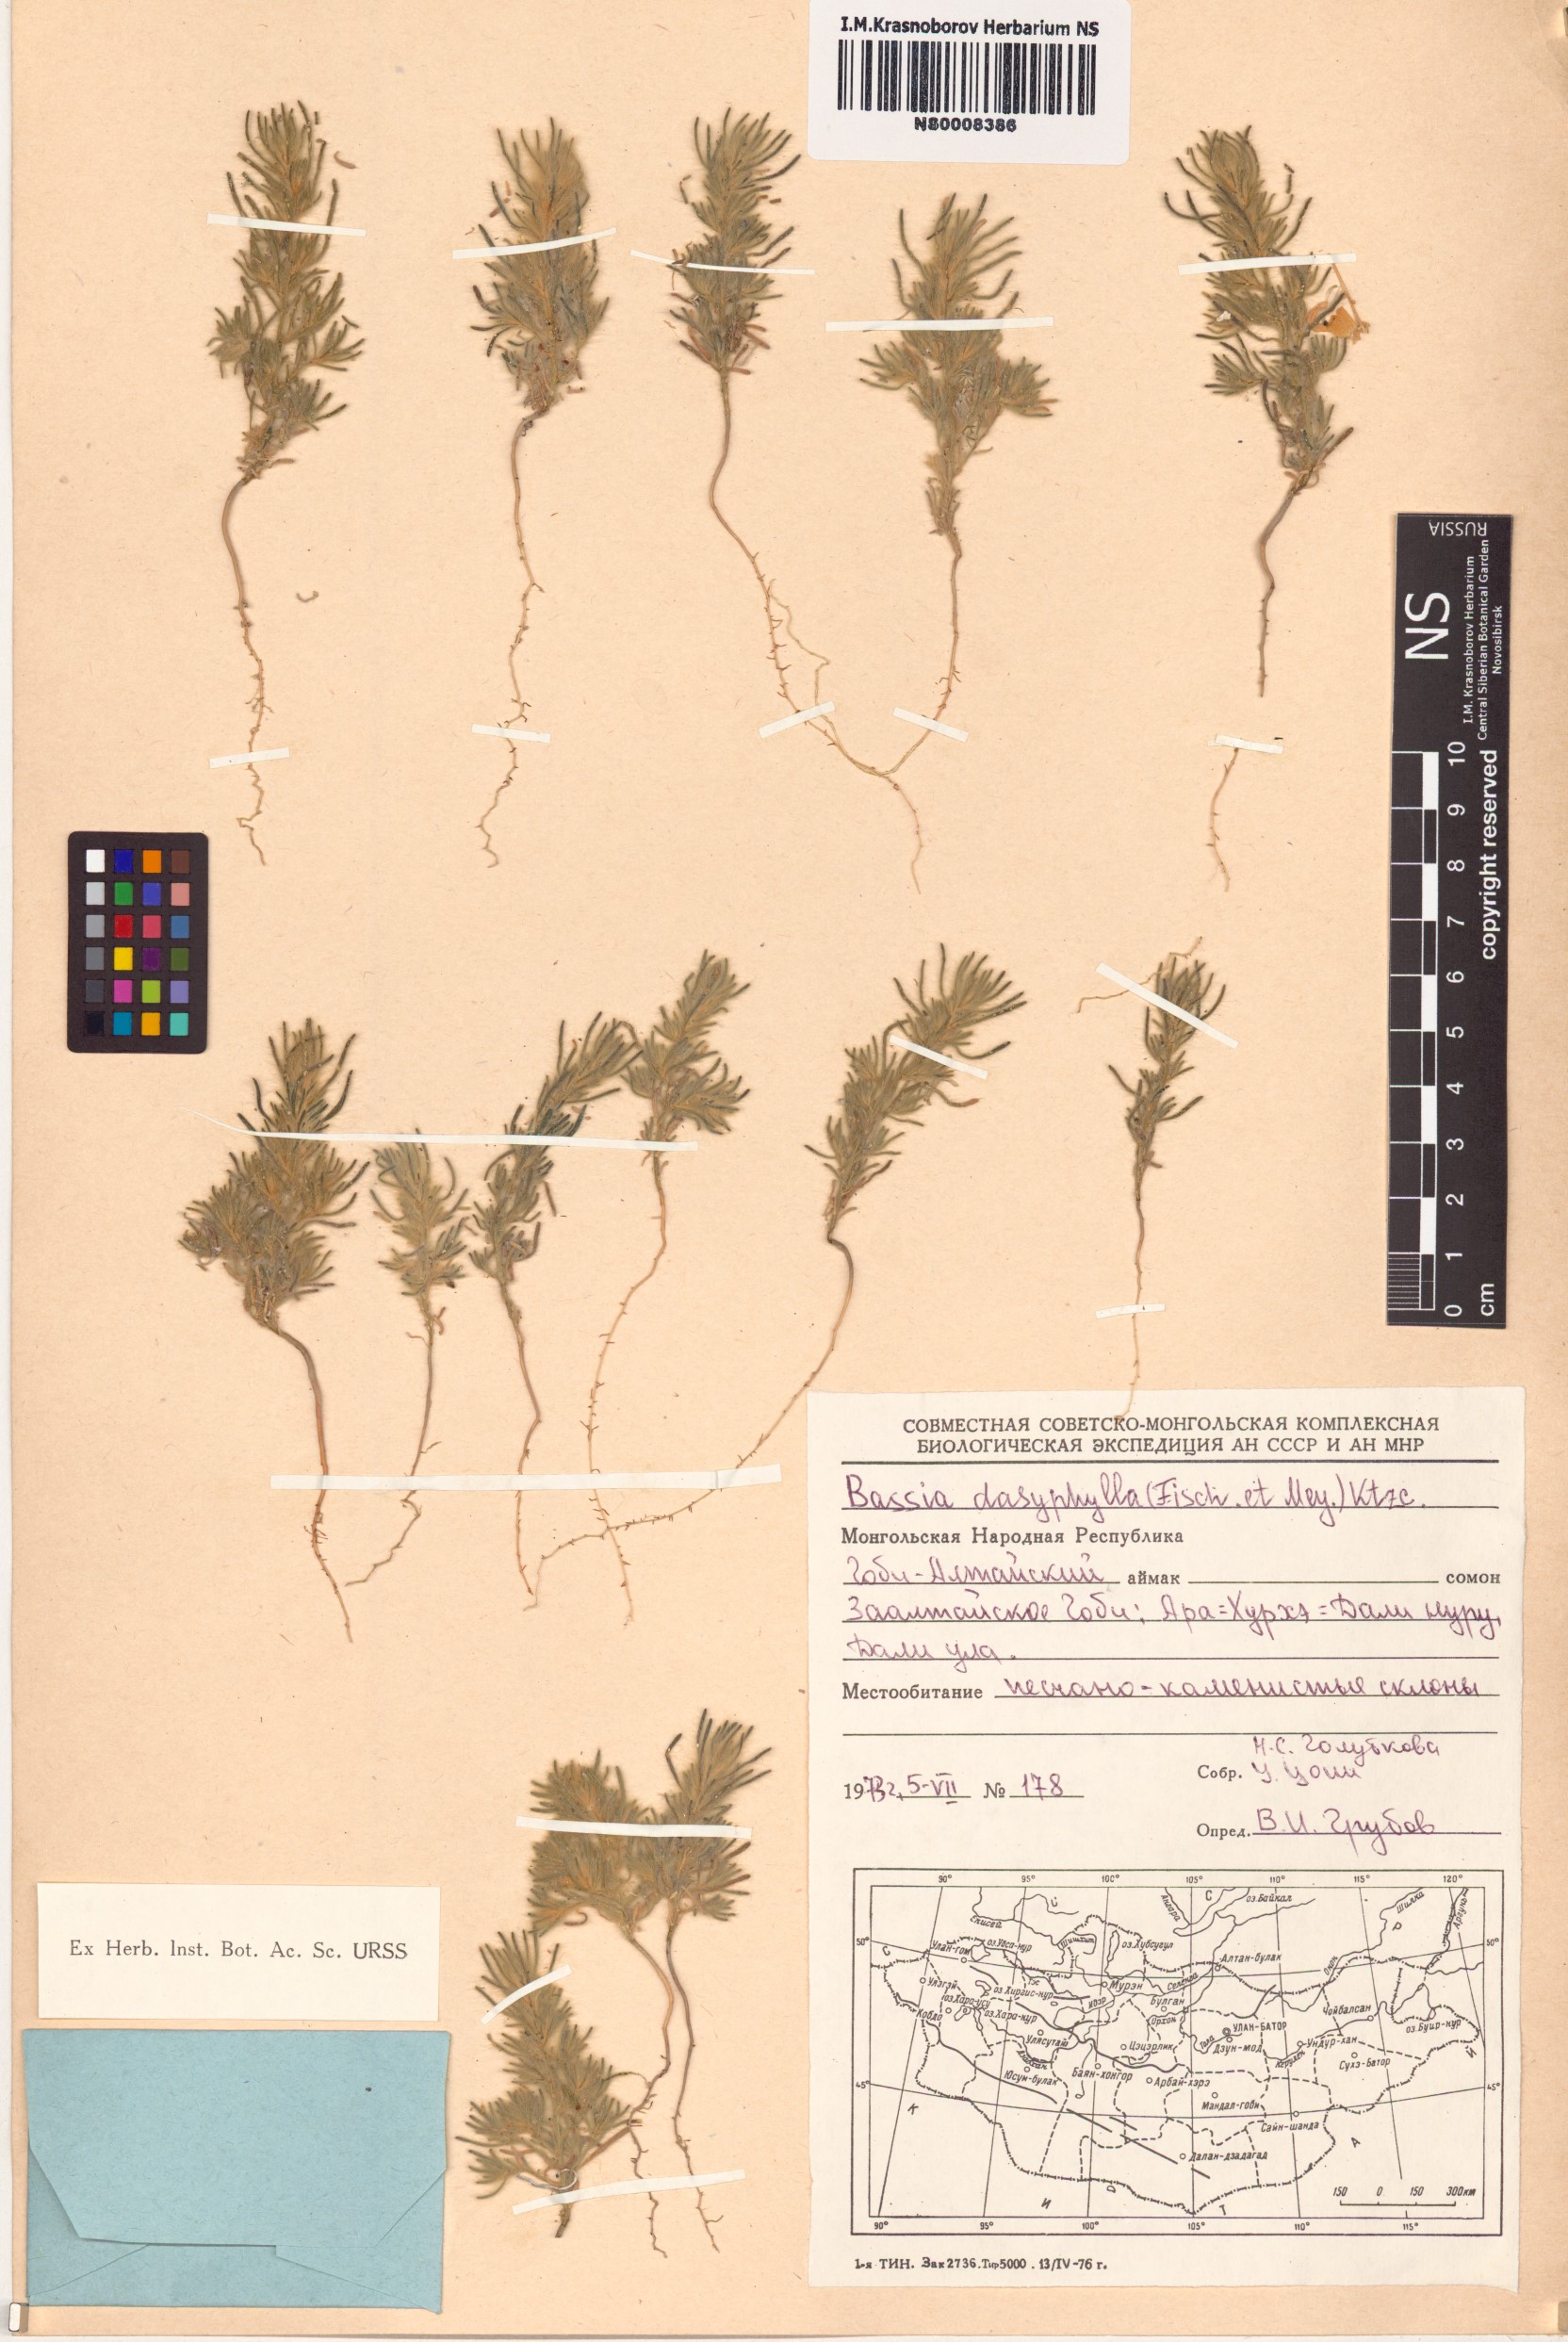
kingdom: Plantae
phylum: Tracheophyta
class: Magnoliopsida
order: Caryophyllales
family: Amaranthaceae
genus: Grubovia
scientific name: Grubovia dasyphylla
